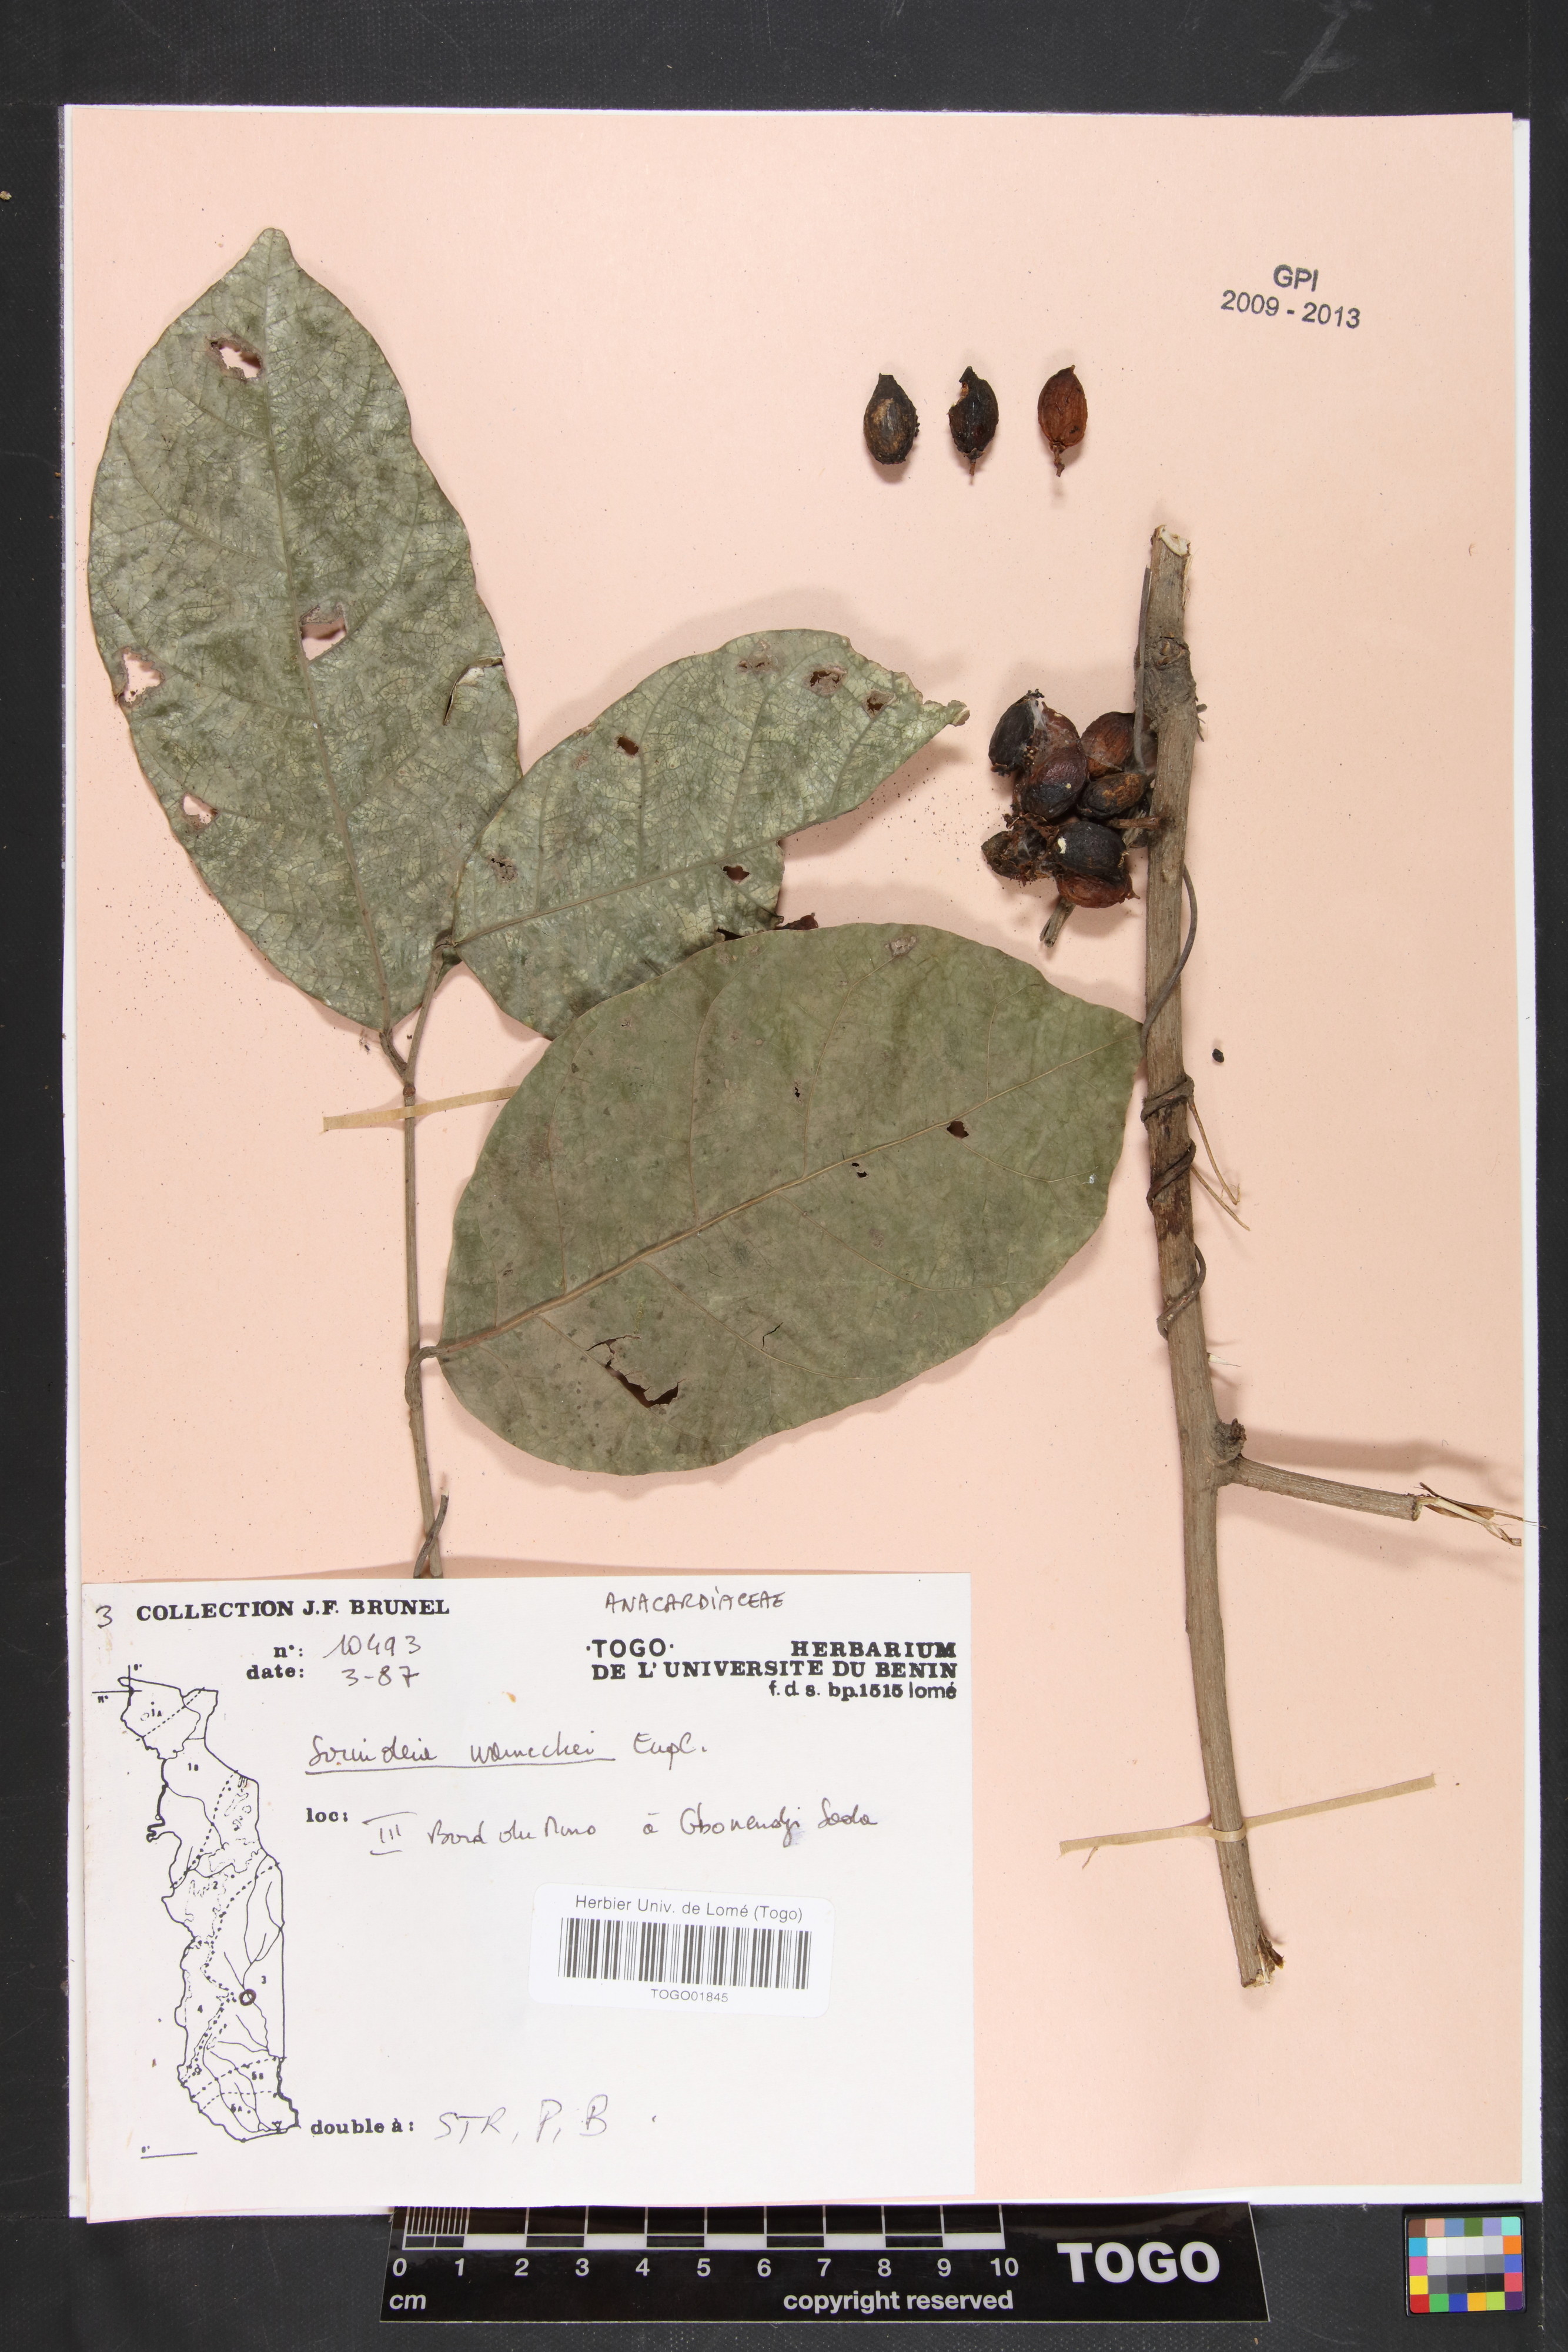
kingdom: Plantae
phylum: Tracheophyta
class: Magnoliopsida
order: Sapindales
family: Anacardiaceae
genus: Sorindeia
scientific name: Sorindeia grandifolia
